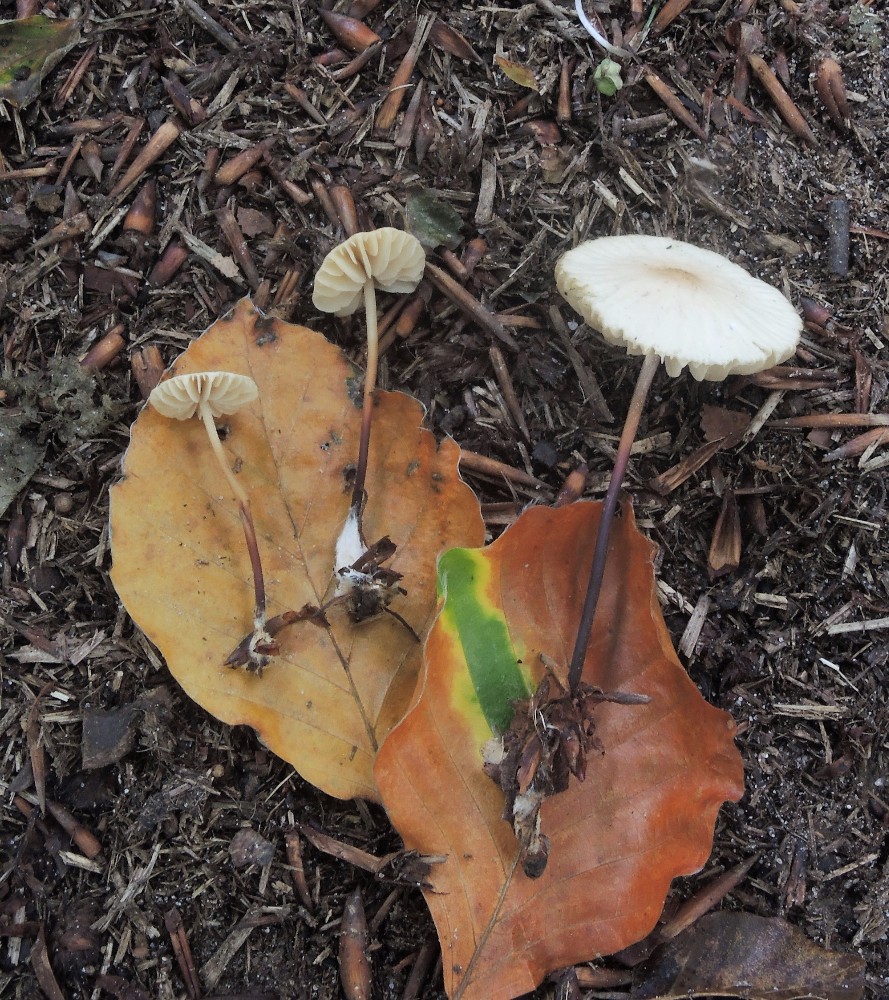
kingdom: Fungi
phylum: Basidiomycota
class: Agaricomycetes
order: Agaricales
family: Marasmiaceae
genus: Marasmius
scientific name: Marasmius torquescens
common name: filtfodet bruskhat
